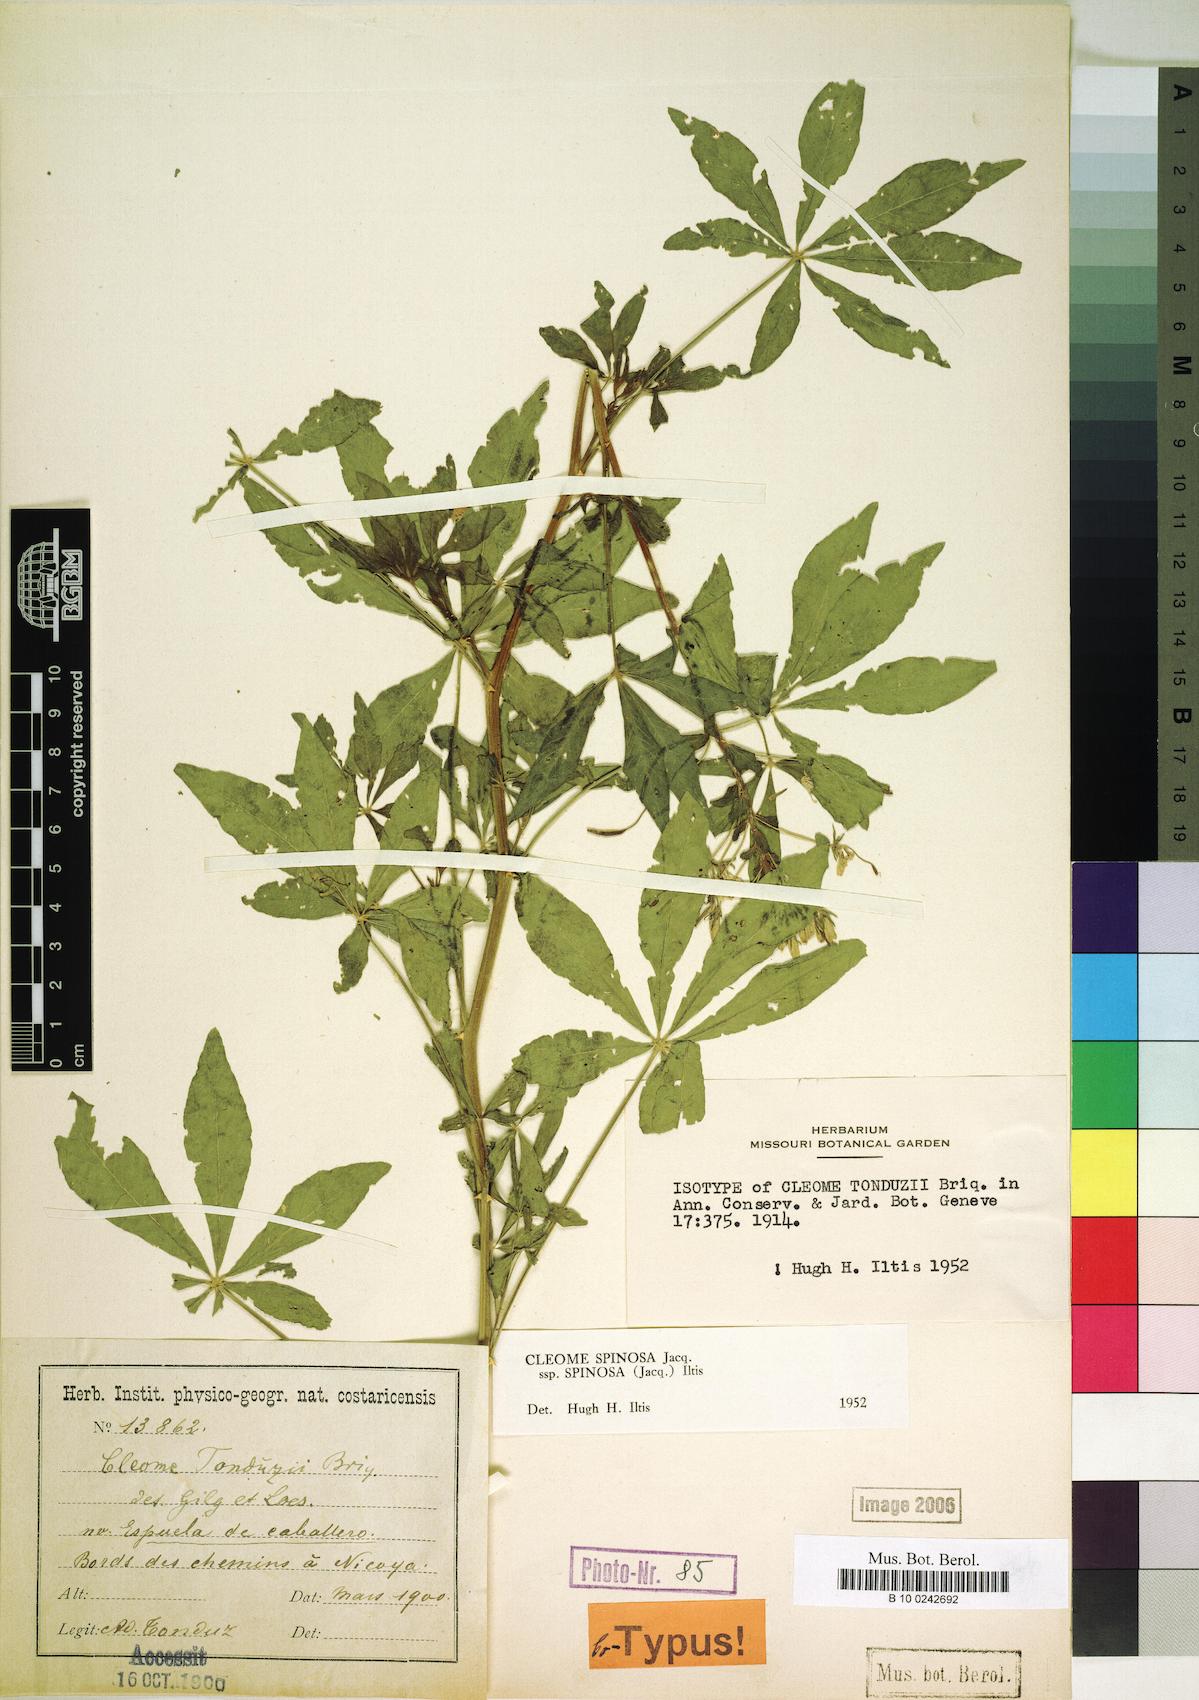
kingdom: Plantae
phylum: Tracheophyta
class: Magnoliopsida
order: Brassicales
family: Cleomaceae
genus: Tarenaya
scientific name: Tarenaya
